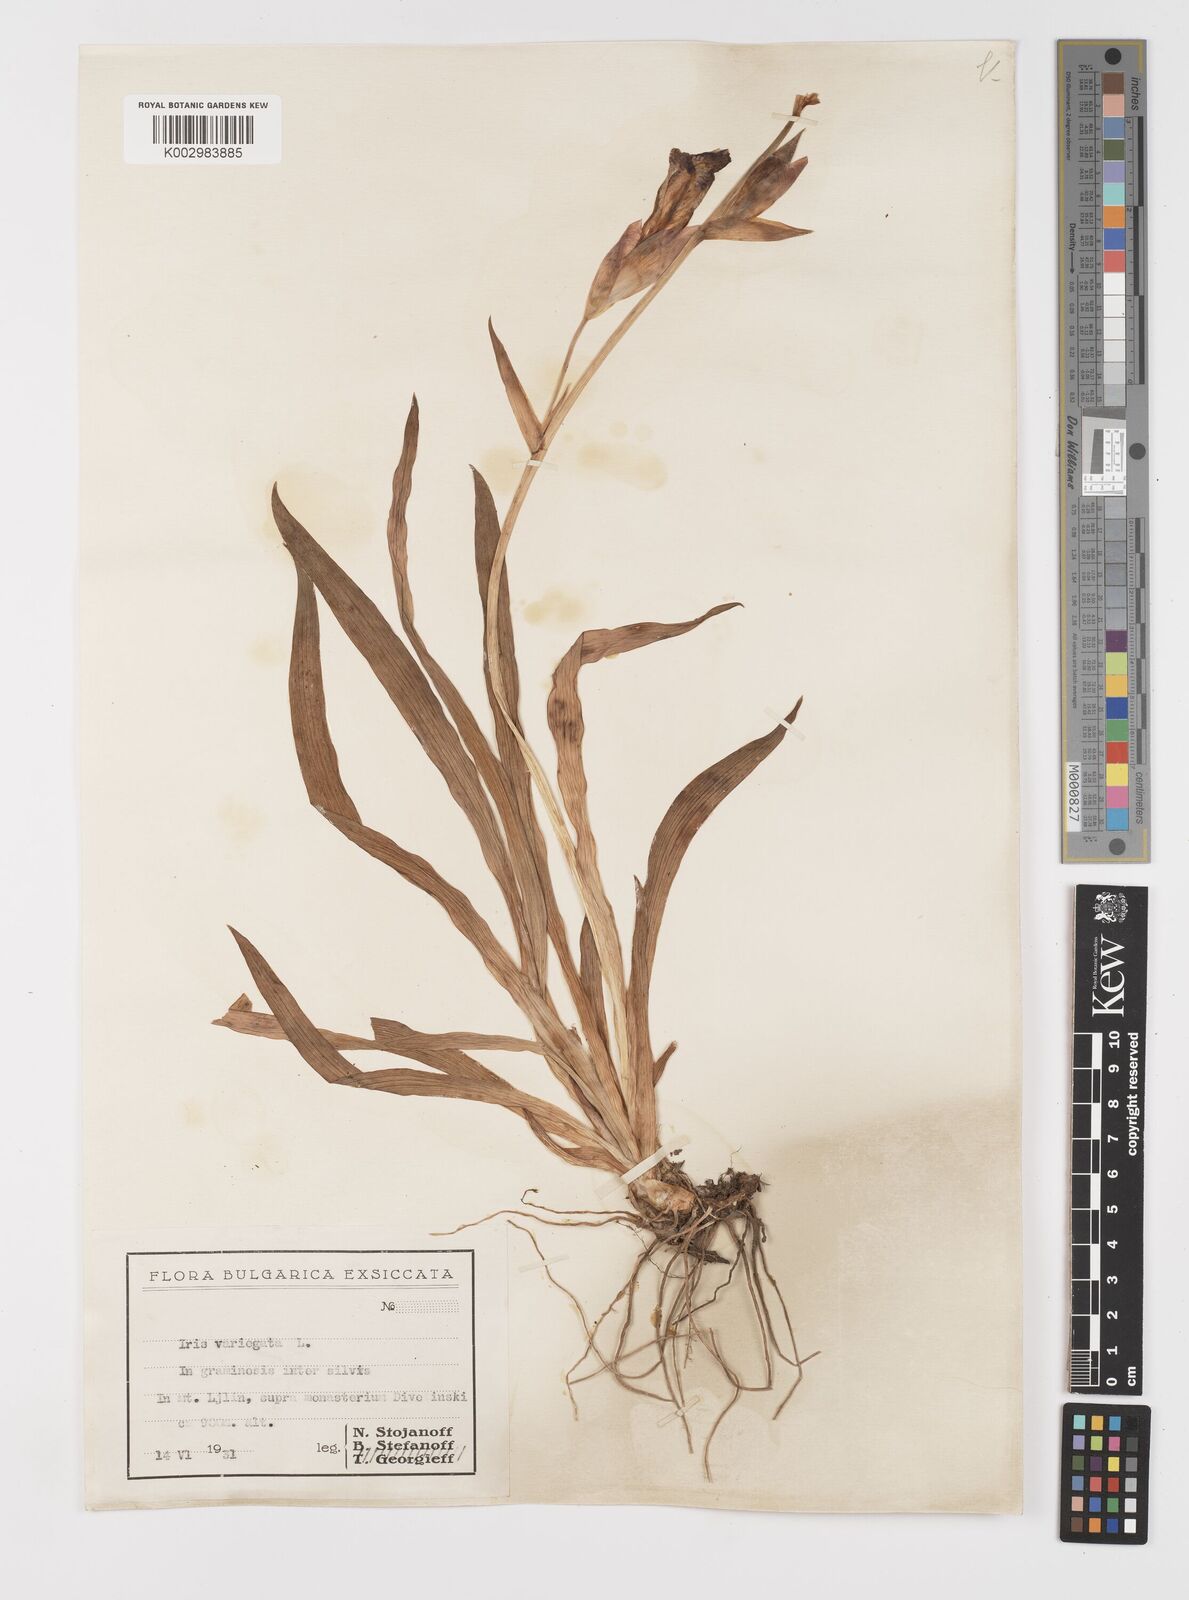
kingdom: Plantae
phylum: Tracheophyta
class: Liliopsida
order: Asparagales
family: Iridaceae
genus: Iris
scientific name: Iris variegata
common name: Hungarian iris
